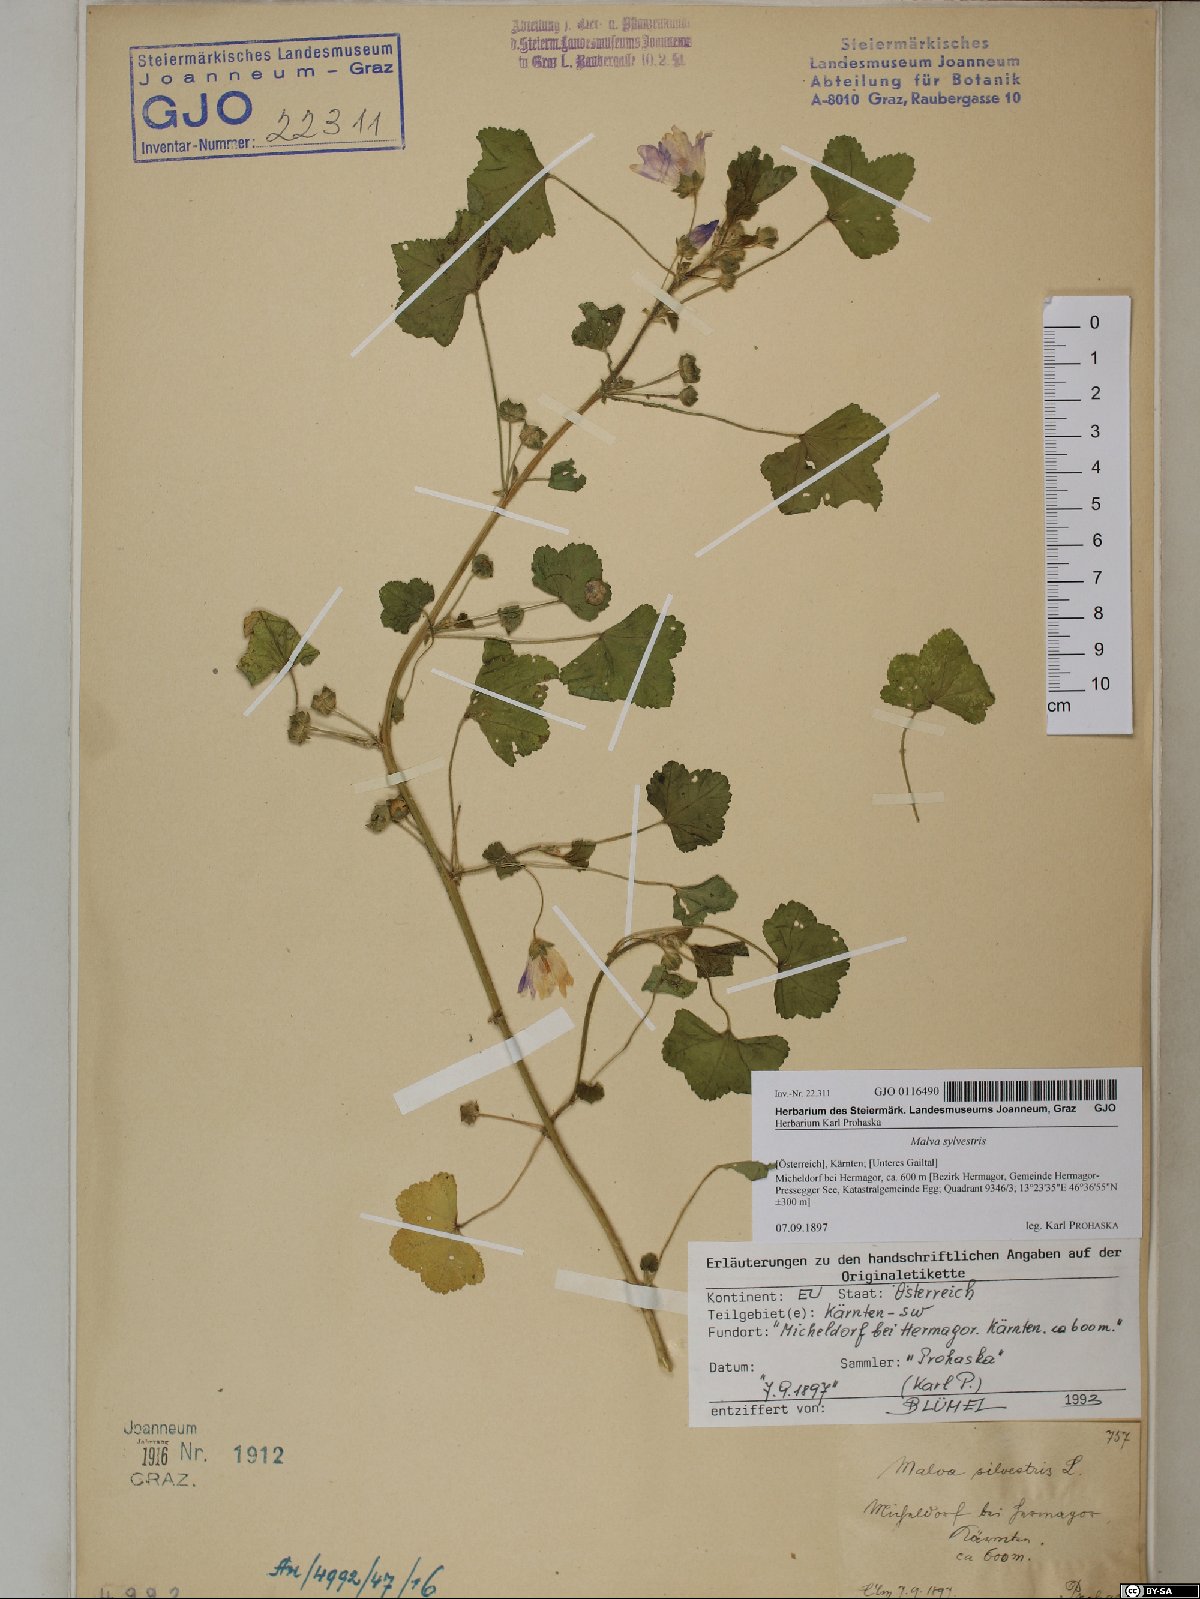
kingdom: Plantae
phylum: Tracheophyta
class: Magnoliopsida
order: Malvales
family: Malvaceae
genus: Malva
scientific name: Malva sylvestris
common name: Common mallow
